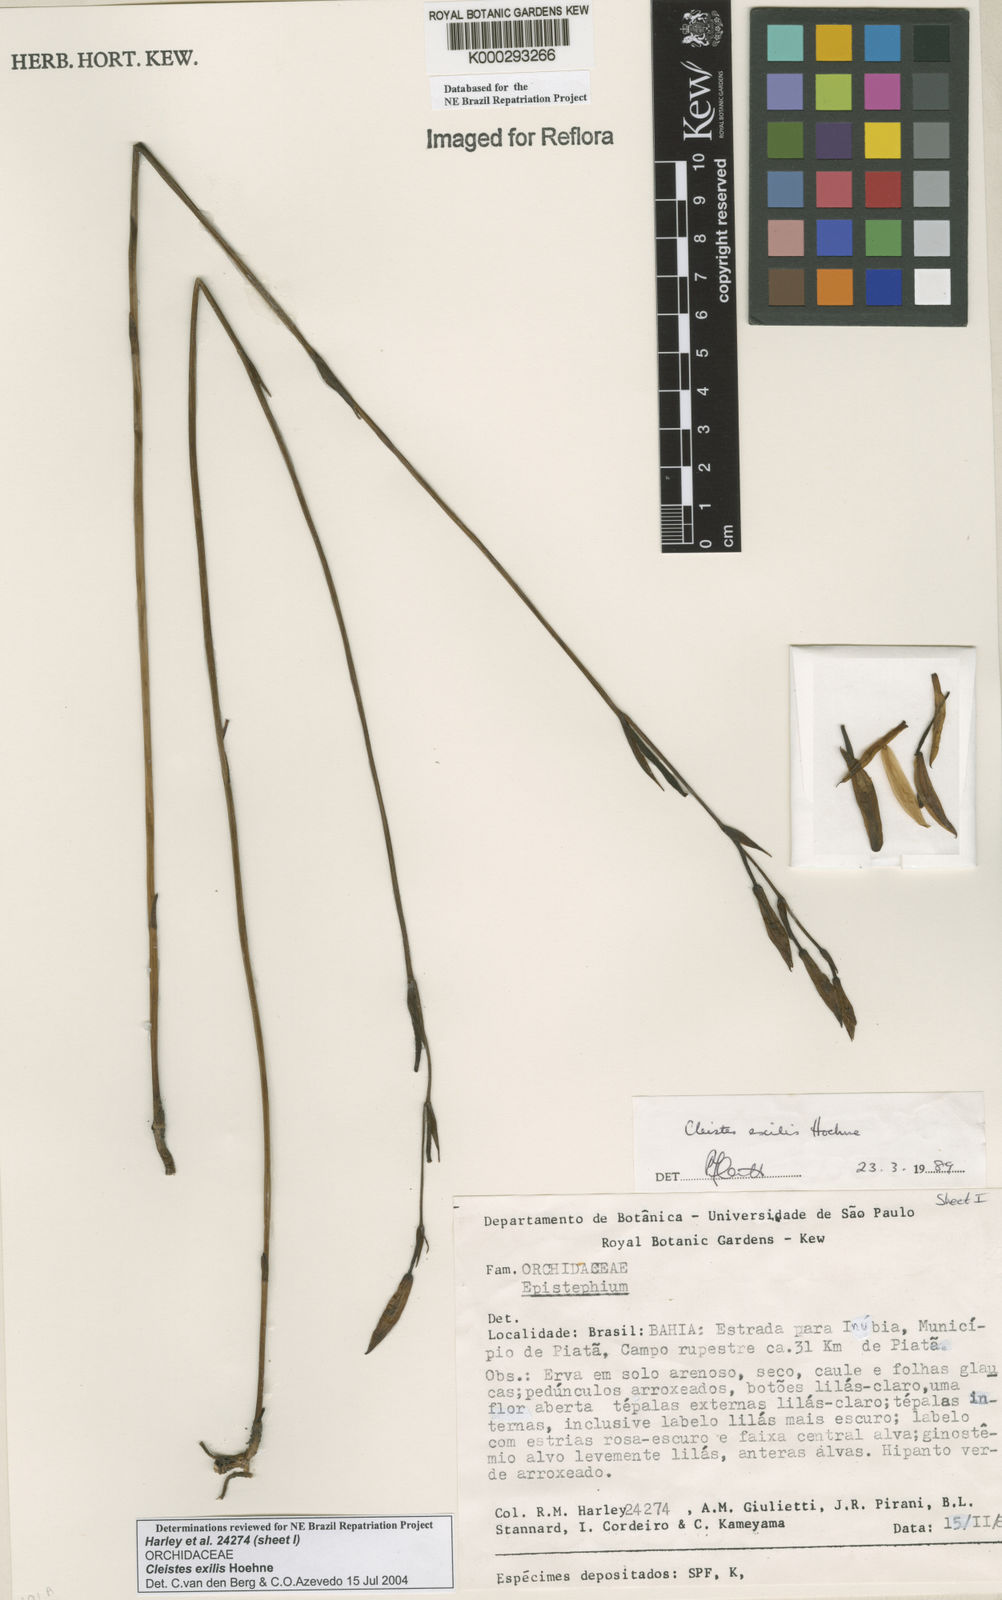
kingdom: Plantae
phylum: Tracheophyta
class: Liliopsida
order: Asparagales
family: Orchidaceae
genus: Cleistes
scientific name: Cleistes exilis
